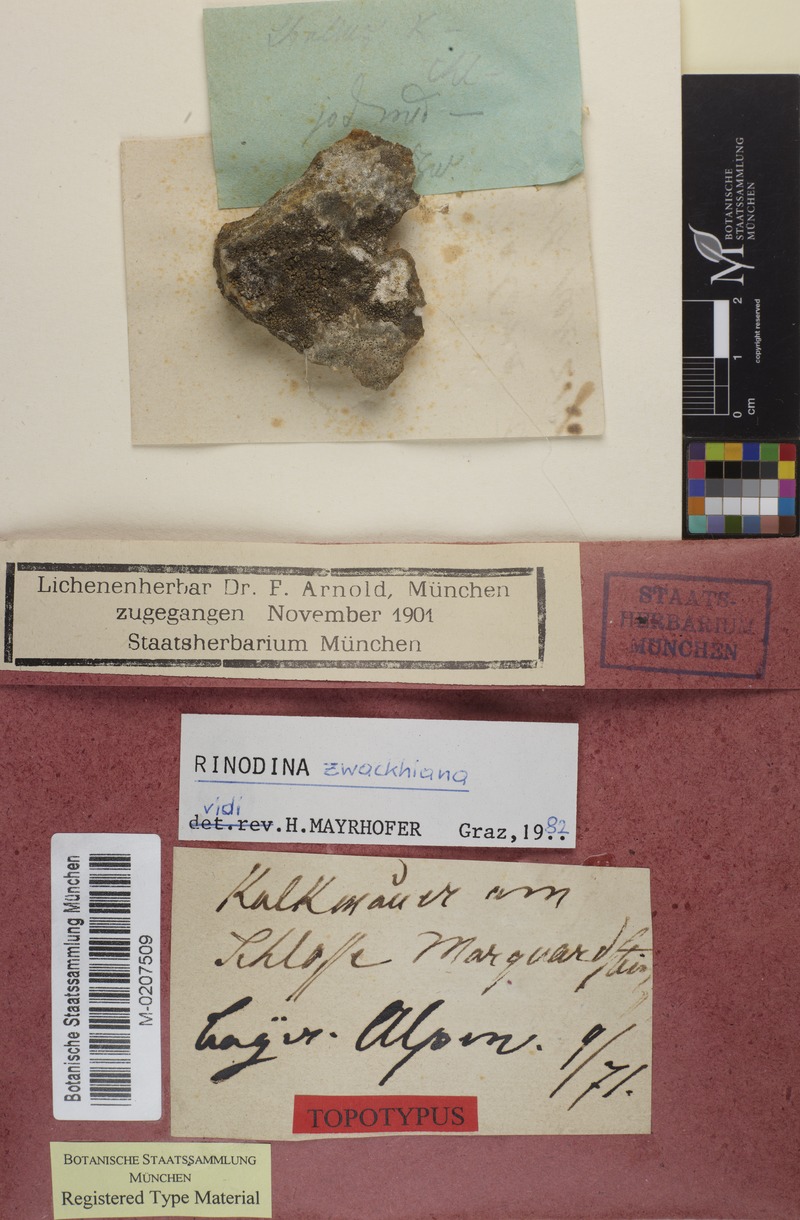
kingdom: Fungi
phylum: Ascomycota
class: Lecanoromycetes
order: Caliciales
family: Physciaceae
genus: Johnsheardia
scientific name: Johnsheardia zwackhiana
